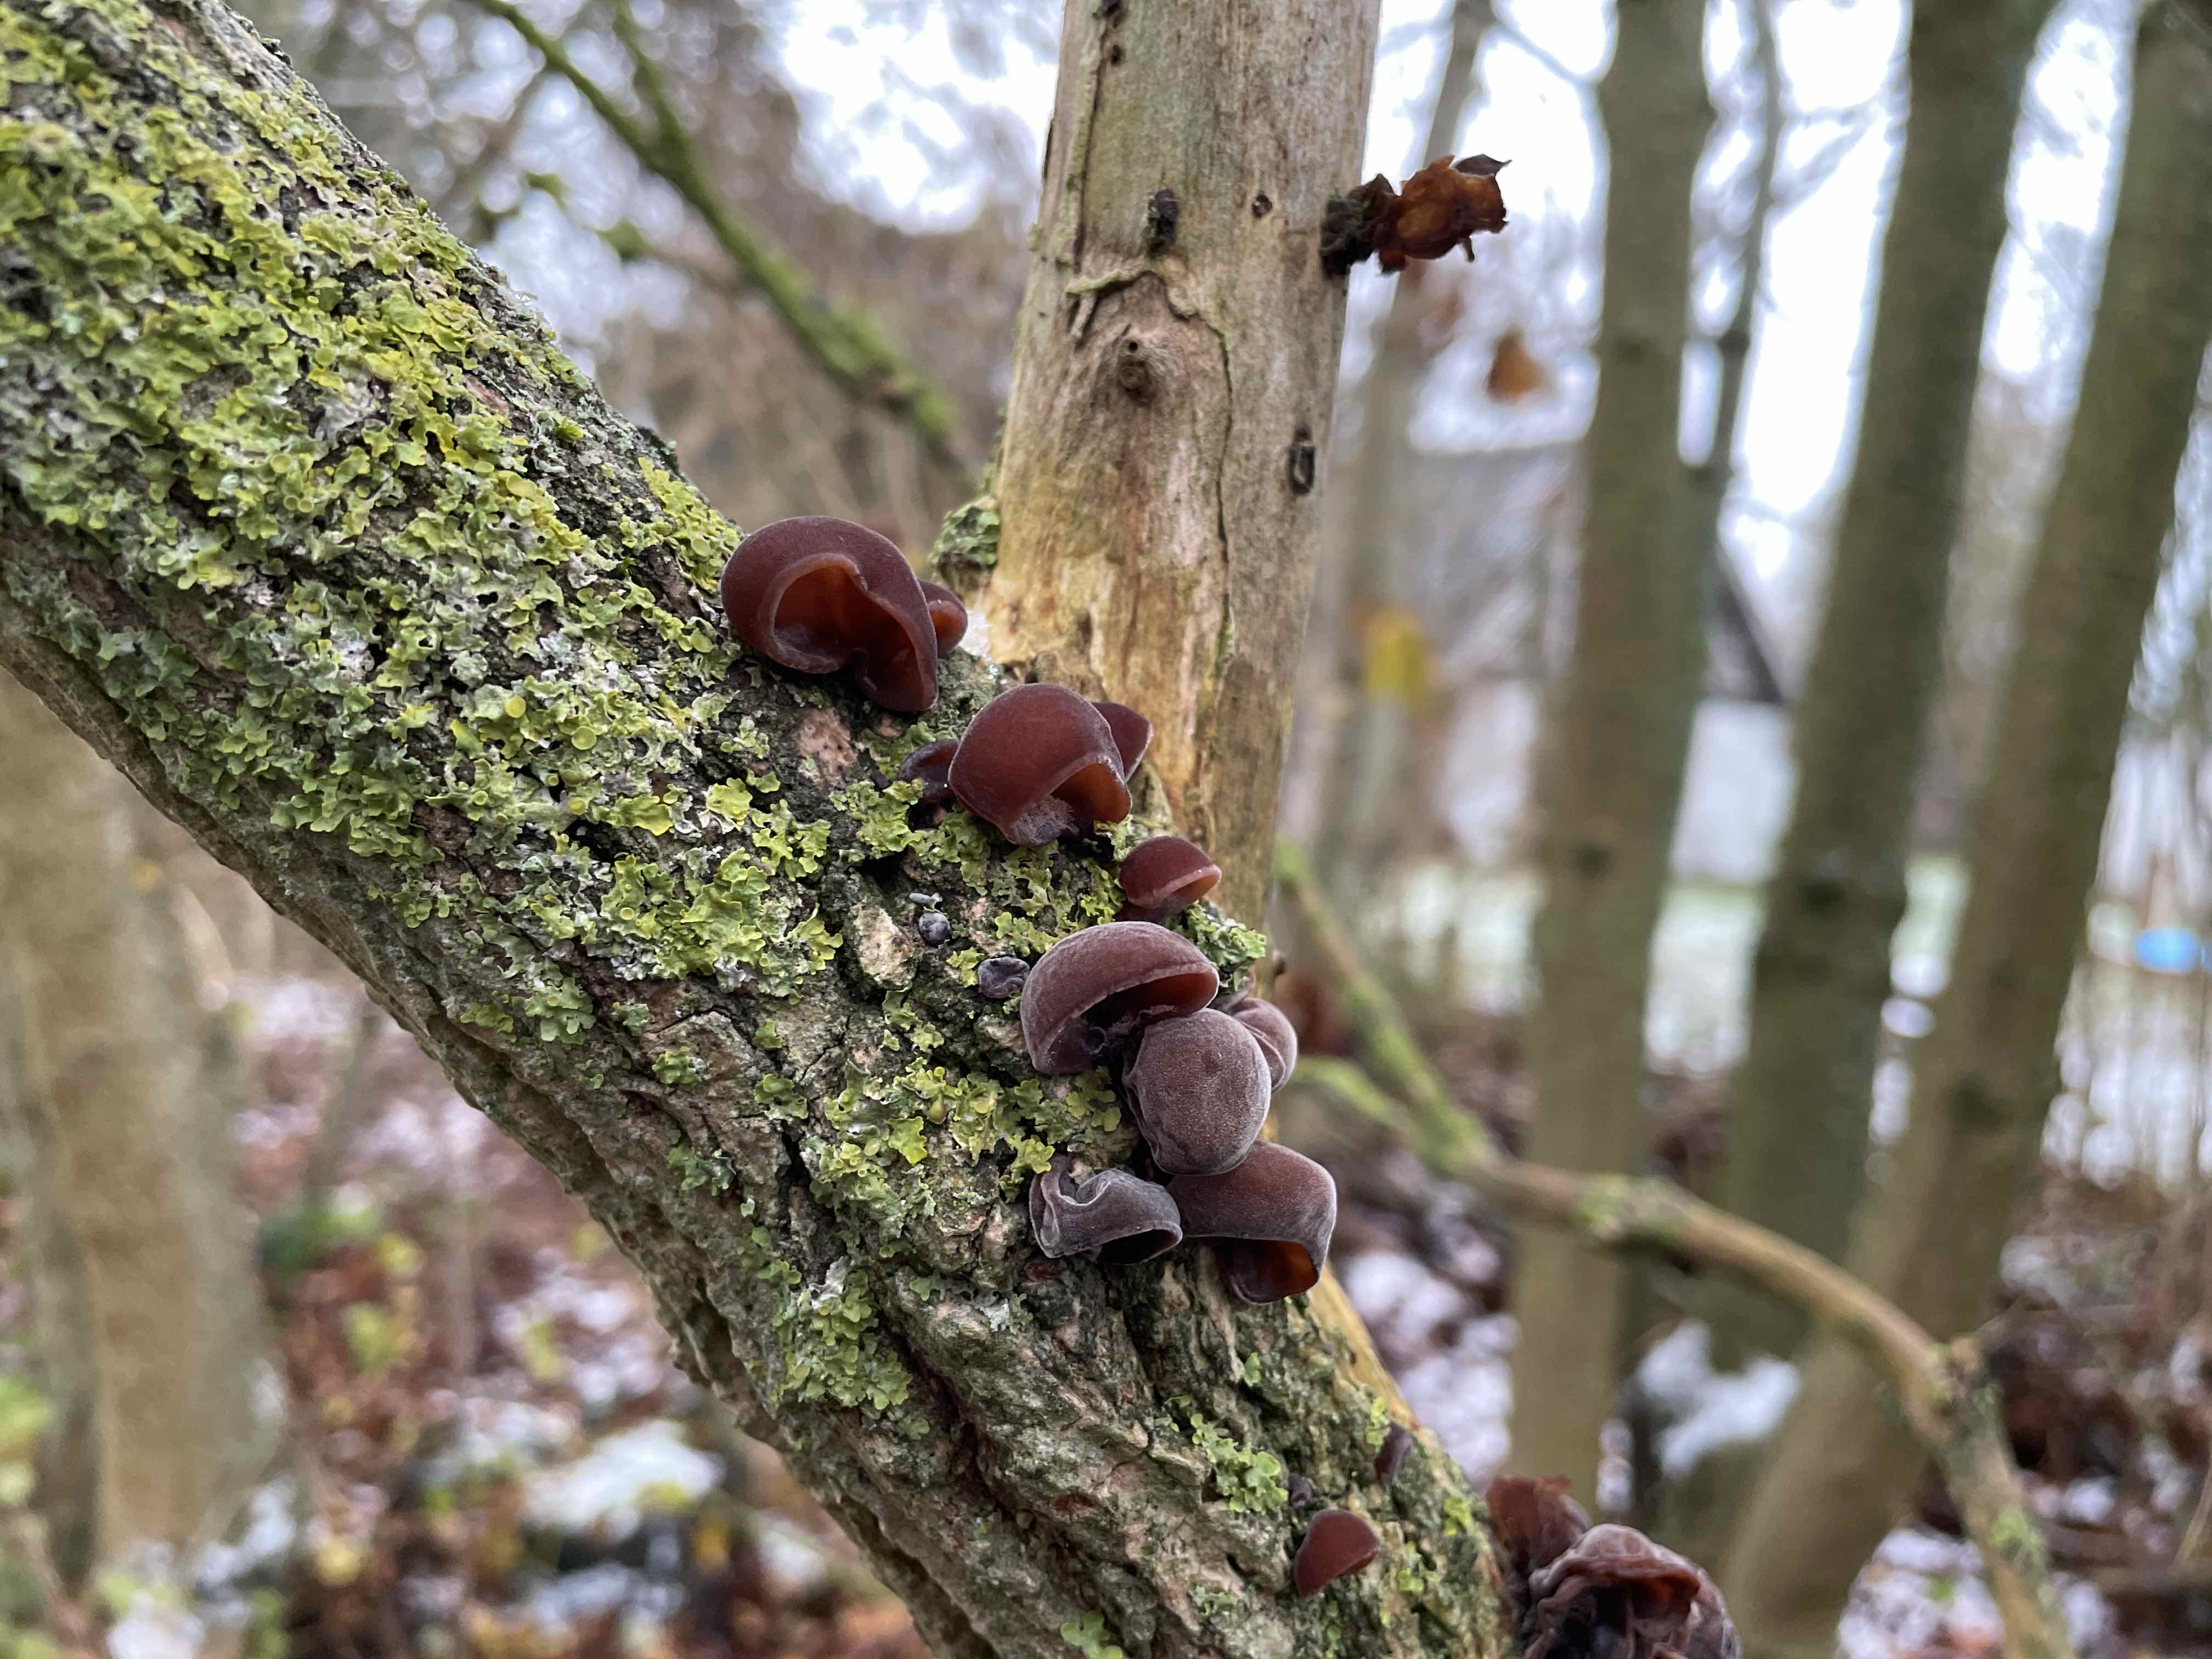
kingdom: Fungi
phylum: Basidiomycota
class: Agaricomycetes
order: Auriculariales
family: Auriculariaceae
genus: Auricularia
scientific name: Auricularia auricula-judae
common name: almindelig judasøre
